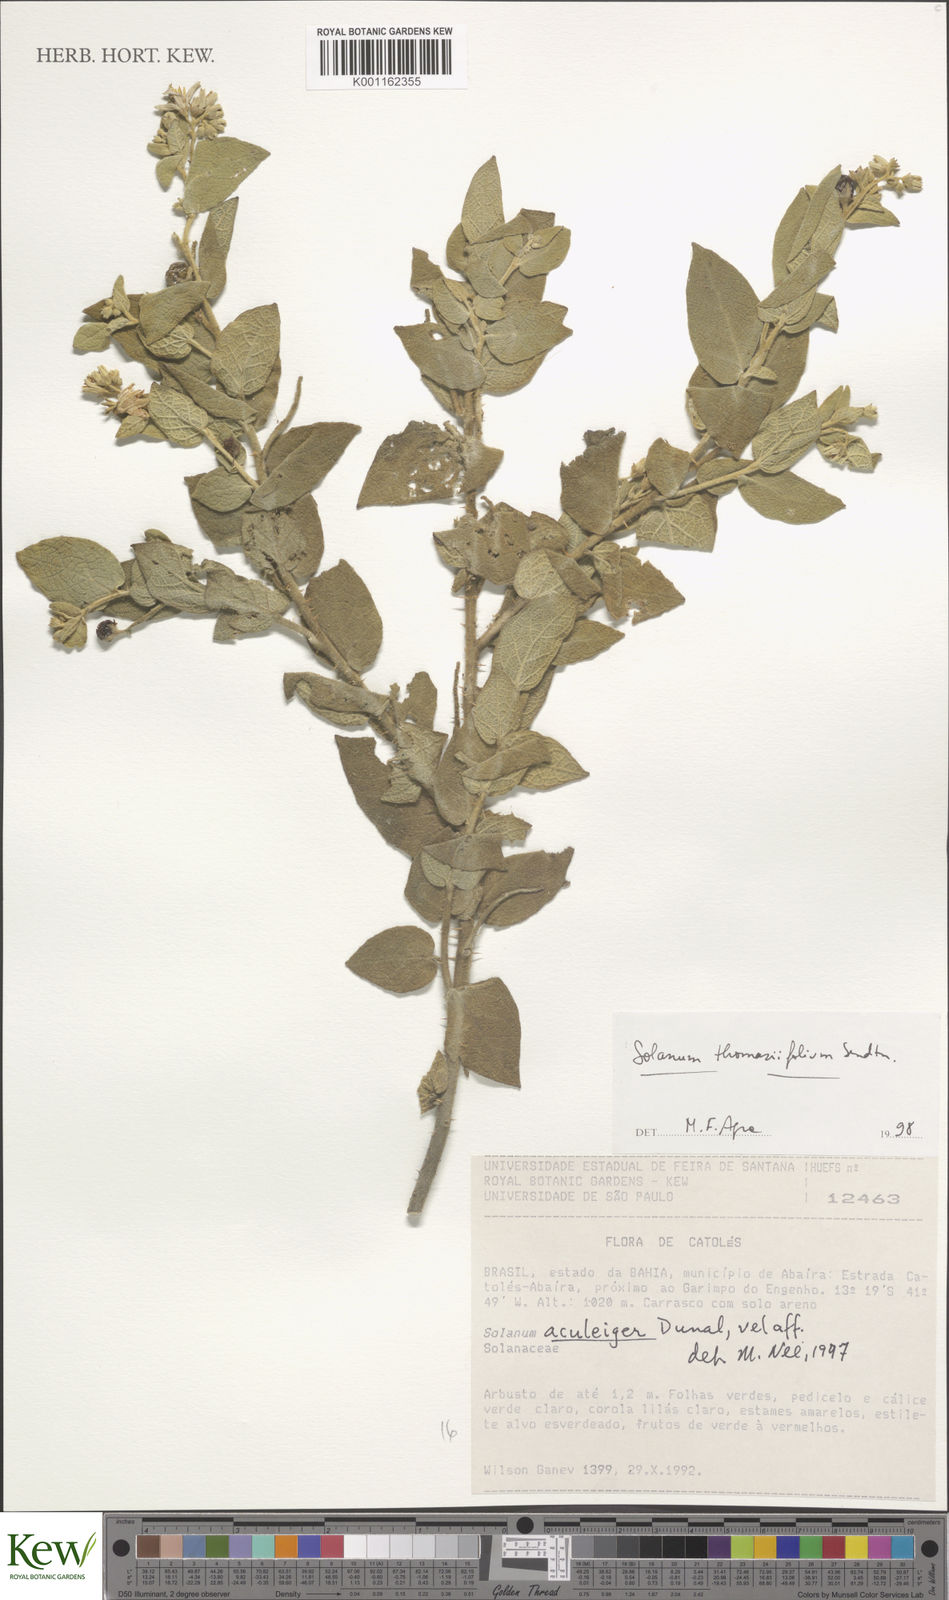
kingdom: Plantae
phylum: Tracheophyta
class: Magnoliopsida
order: Solanales
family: Solanaceae
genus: Solanum
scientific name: Solanum thomasiifolium
